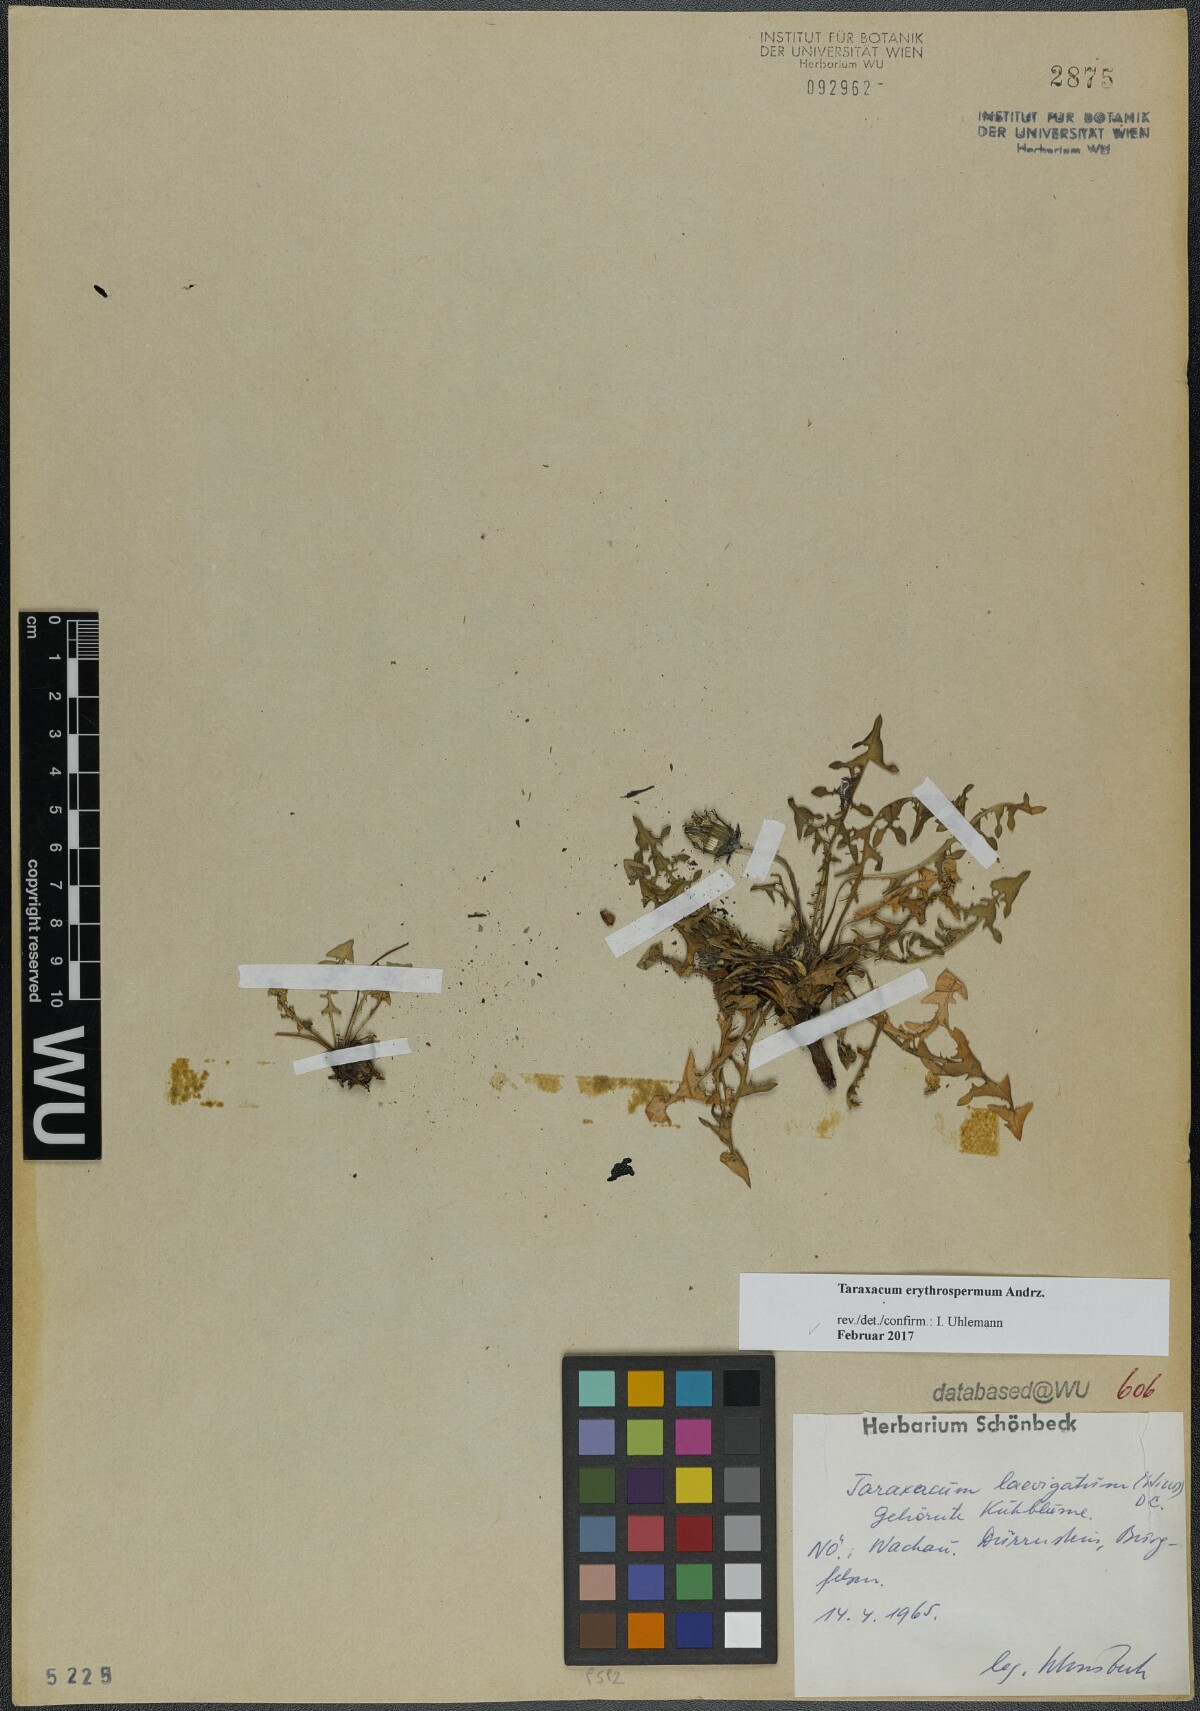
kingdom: Plantae
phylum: Tracheophyta
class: Magnoliopsida
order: Asterales
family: Asteraceae
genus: Taraxacum
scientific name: Taraxacum erythrospermum
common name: Rock dandelion
